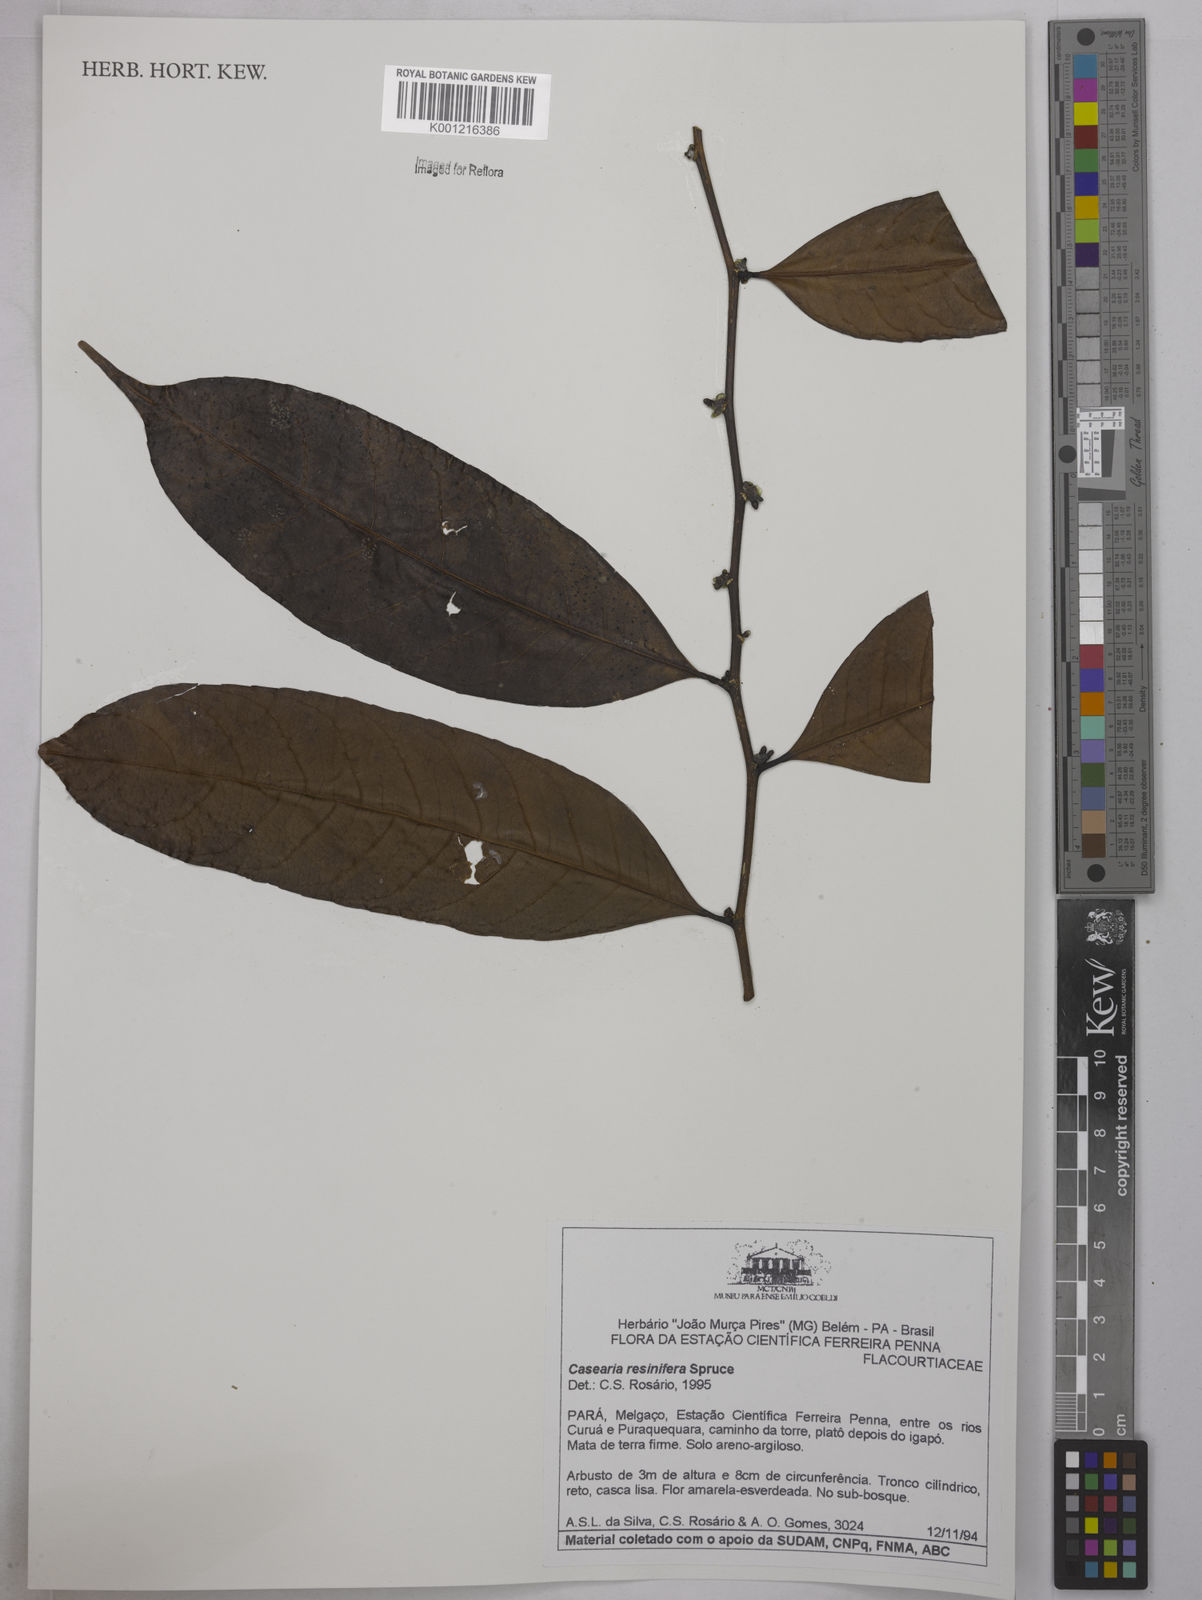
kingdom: Plantae
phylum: Tracheophyta
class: Magnoliopsida
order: Malpighiales
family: Salicaceae
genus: Casearia
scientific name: Casearia resinifera
